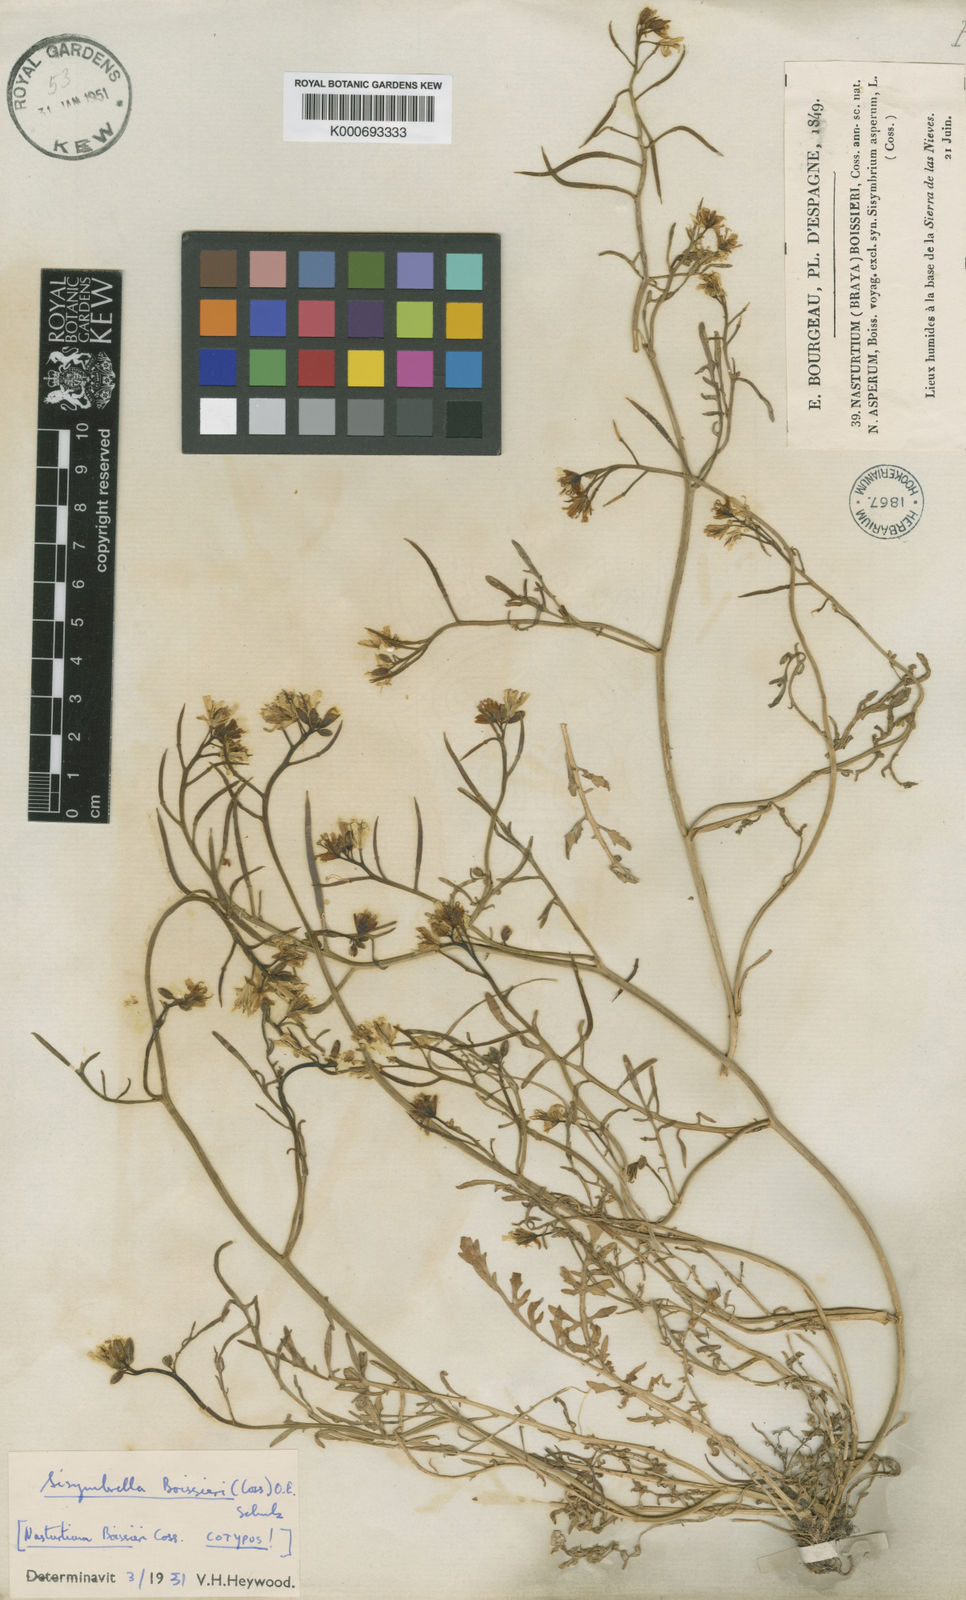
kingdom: Plantae
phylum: Tracheophyta
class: Magnoliopsida
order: Brassicales
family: Brassicaceae
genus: Sisymbrella
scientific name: Sisymbrella aspera
